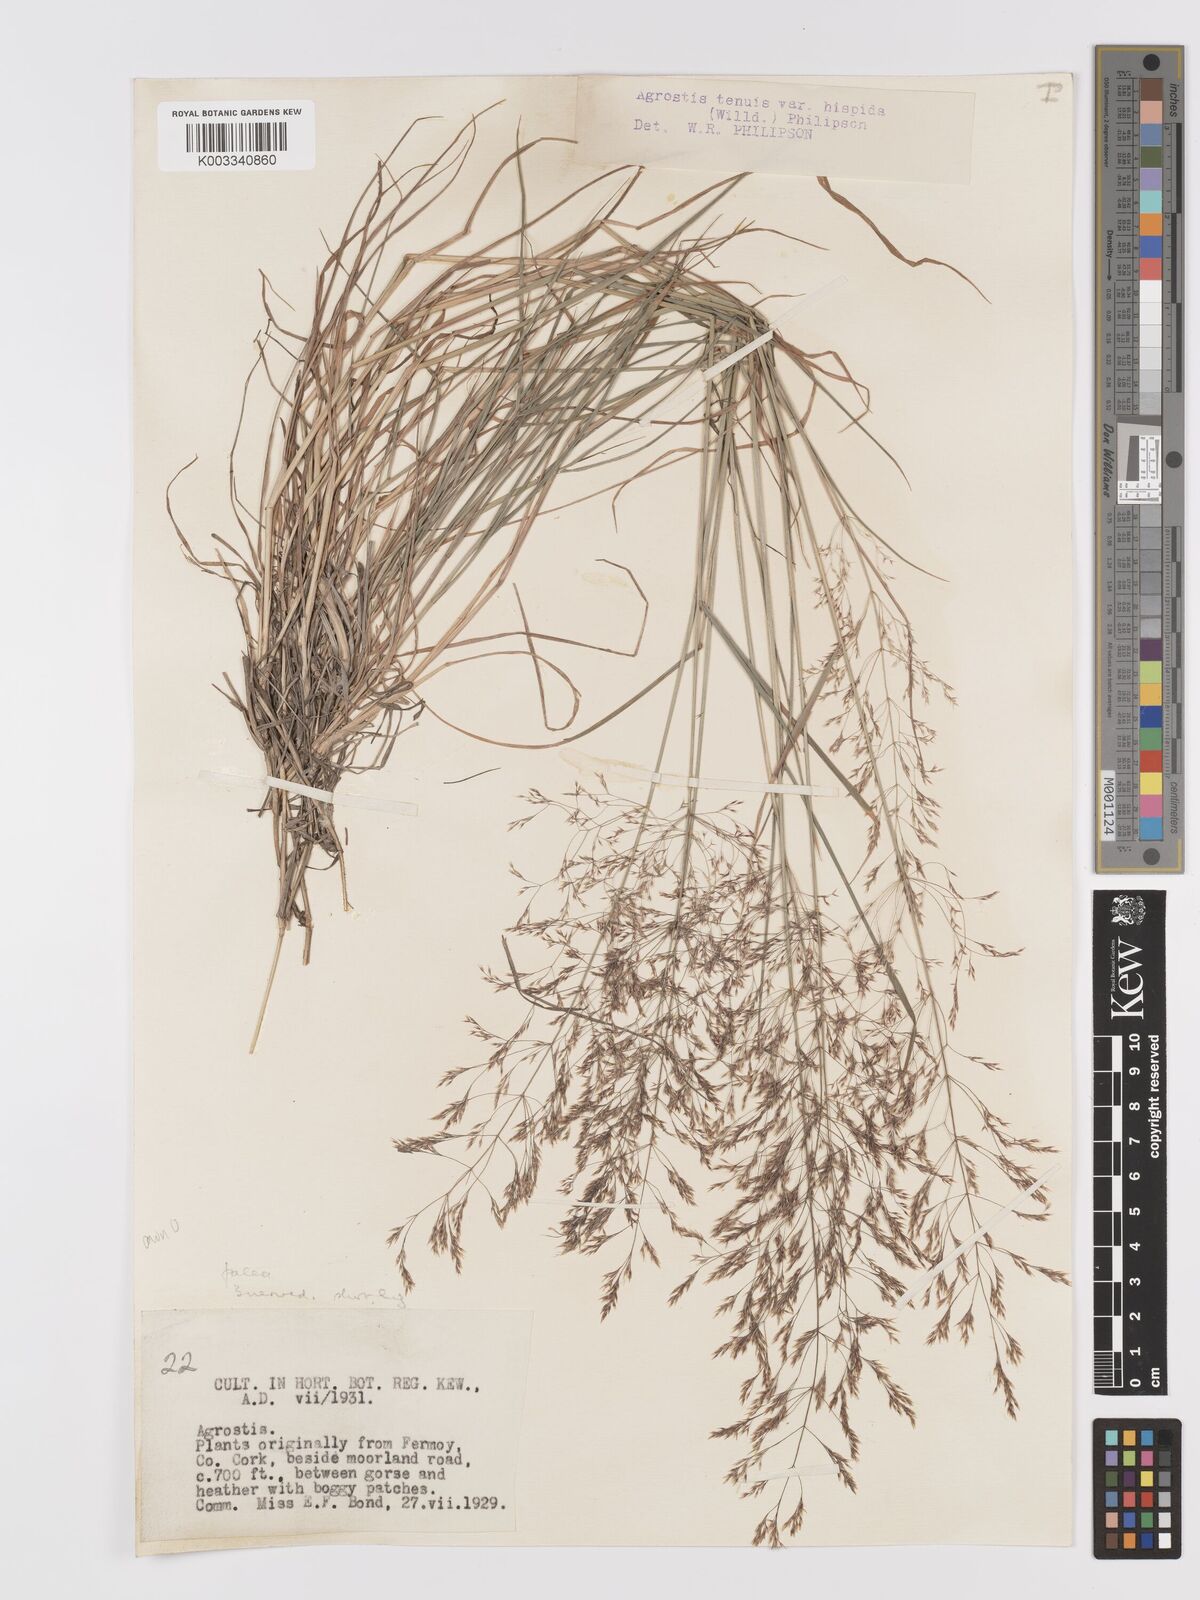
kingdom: Plantae
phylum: Tracheophyta
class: Liliopsida
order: Poales
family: Poaceae
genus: Agrostis
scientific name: Agrostis capillaris
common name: Colonial bentgrass
